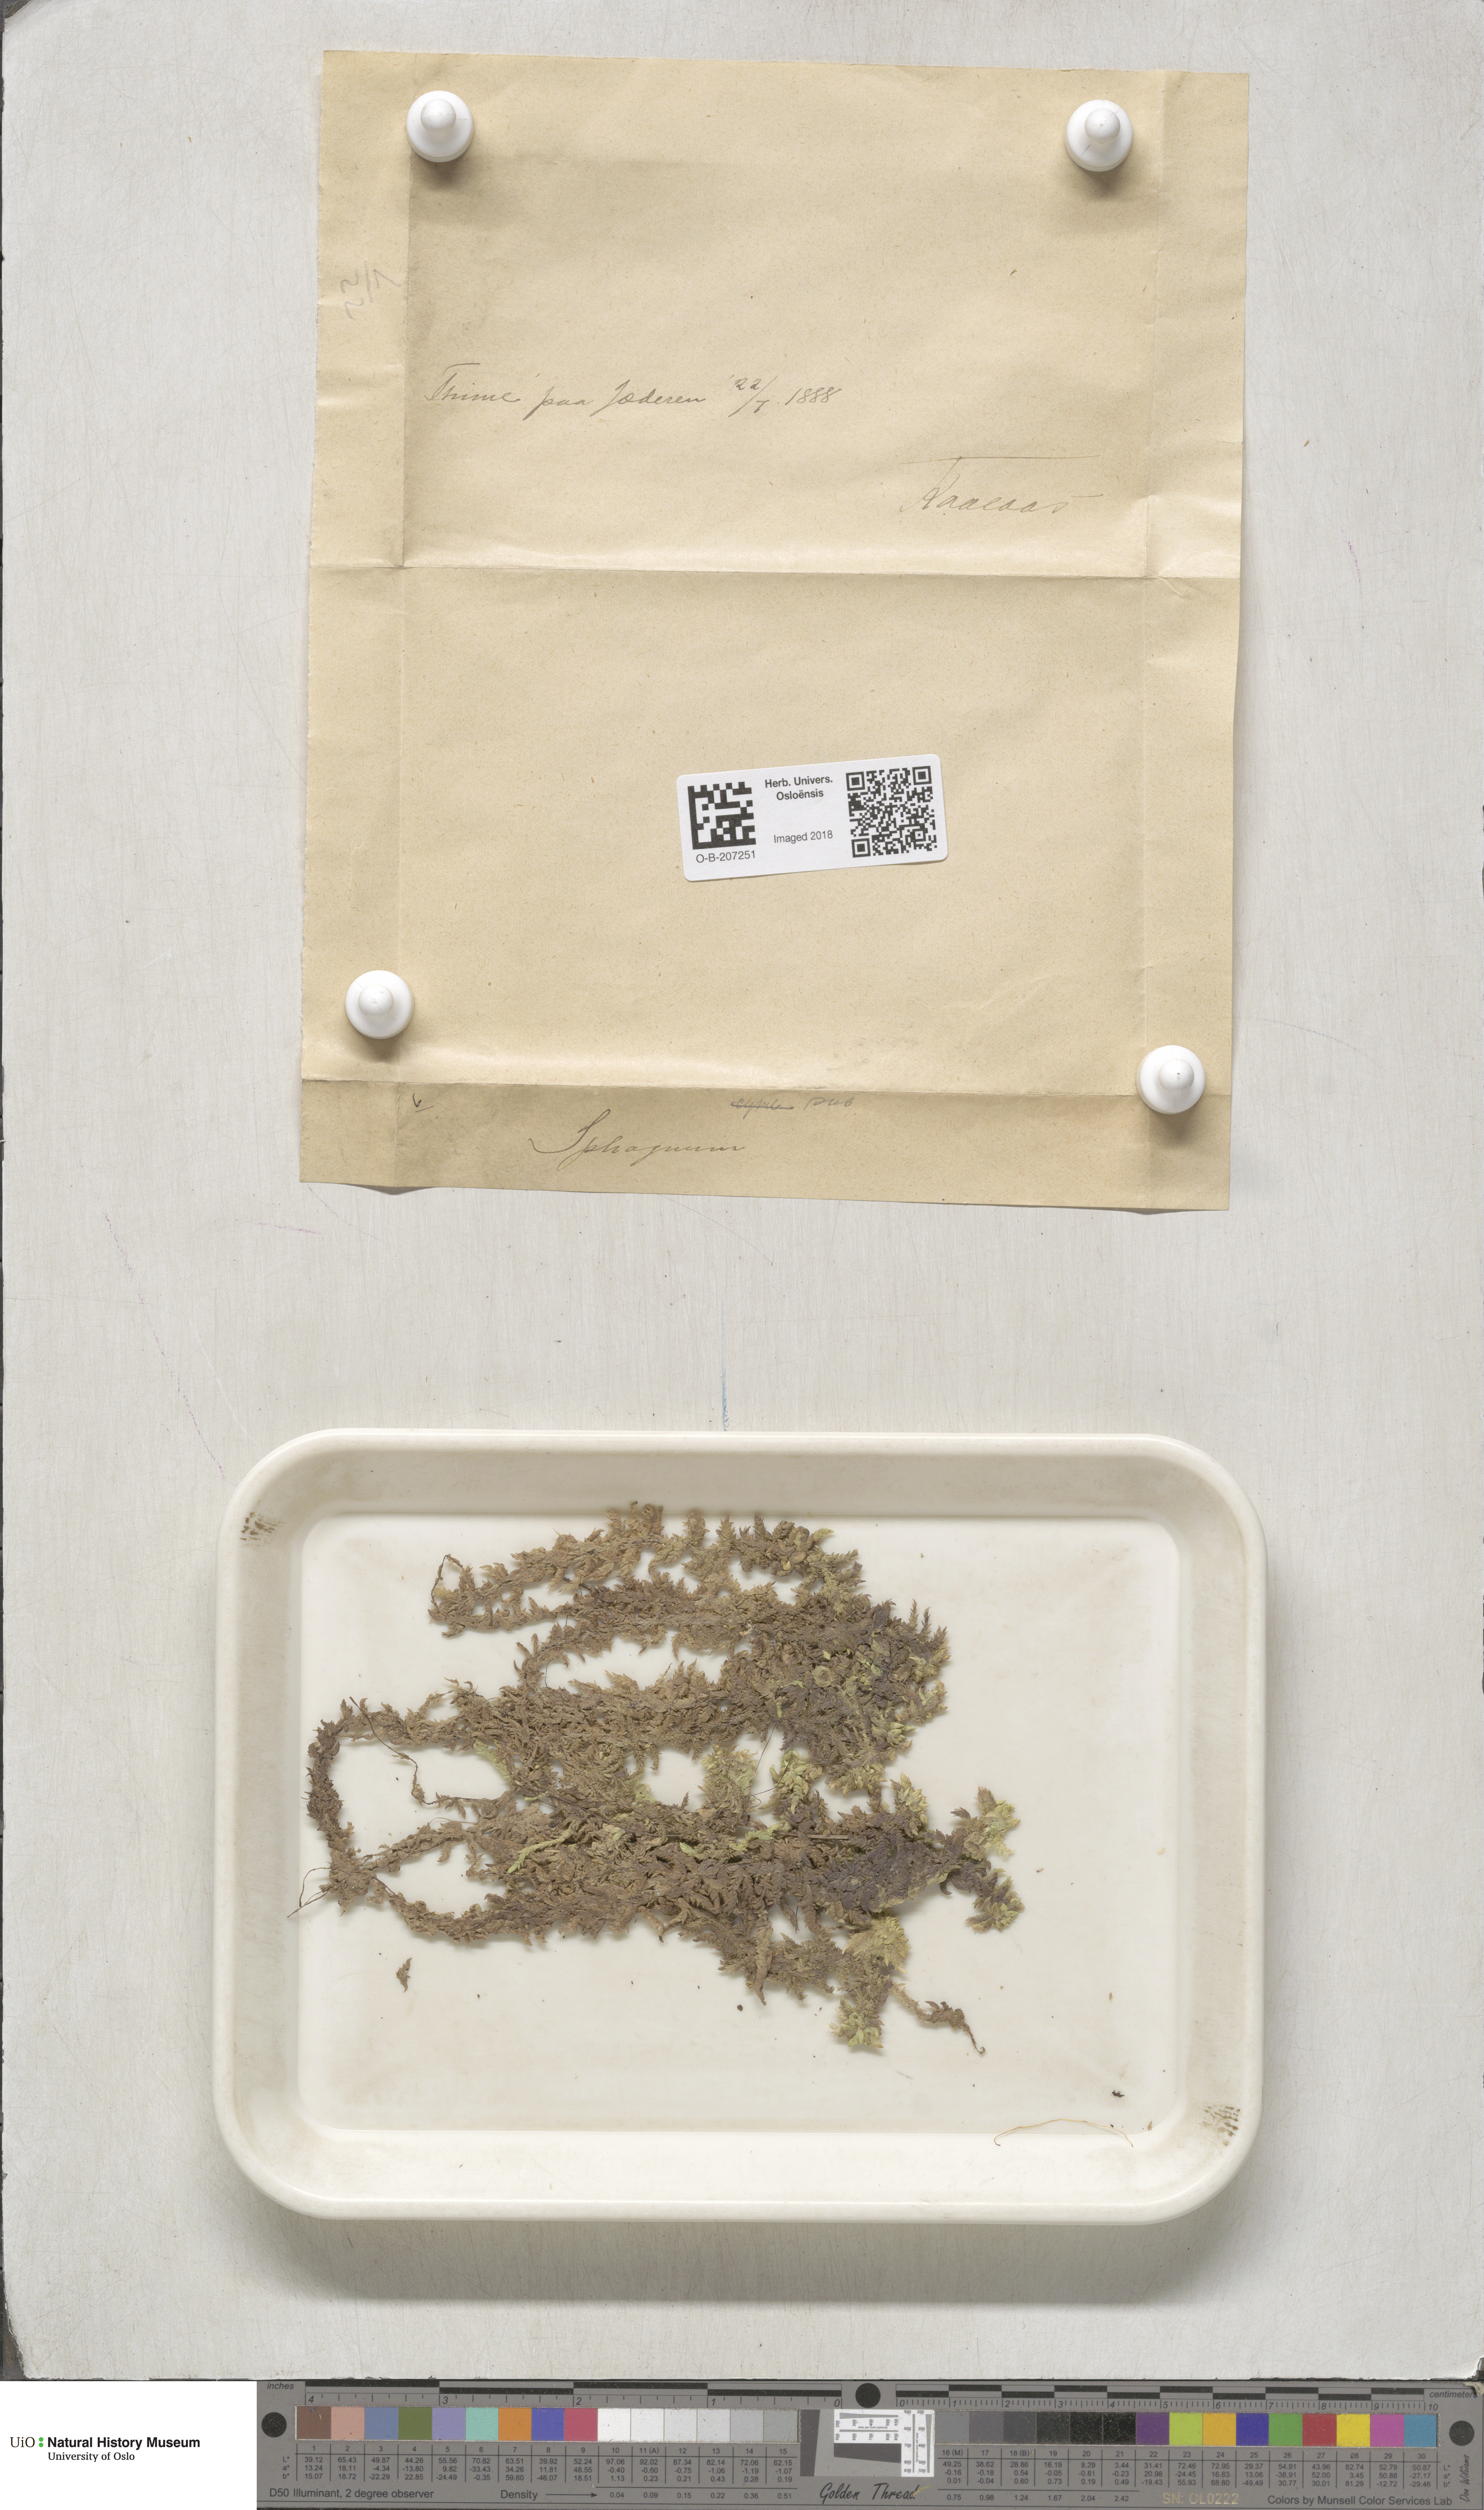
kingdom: Plantae
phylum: Bryophyta
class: Sphagnopsida
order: Sphagnales
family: Sphagnaceae
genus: Sphagnum
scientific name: Sphagnum subsecundum
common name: Orange peat moss
